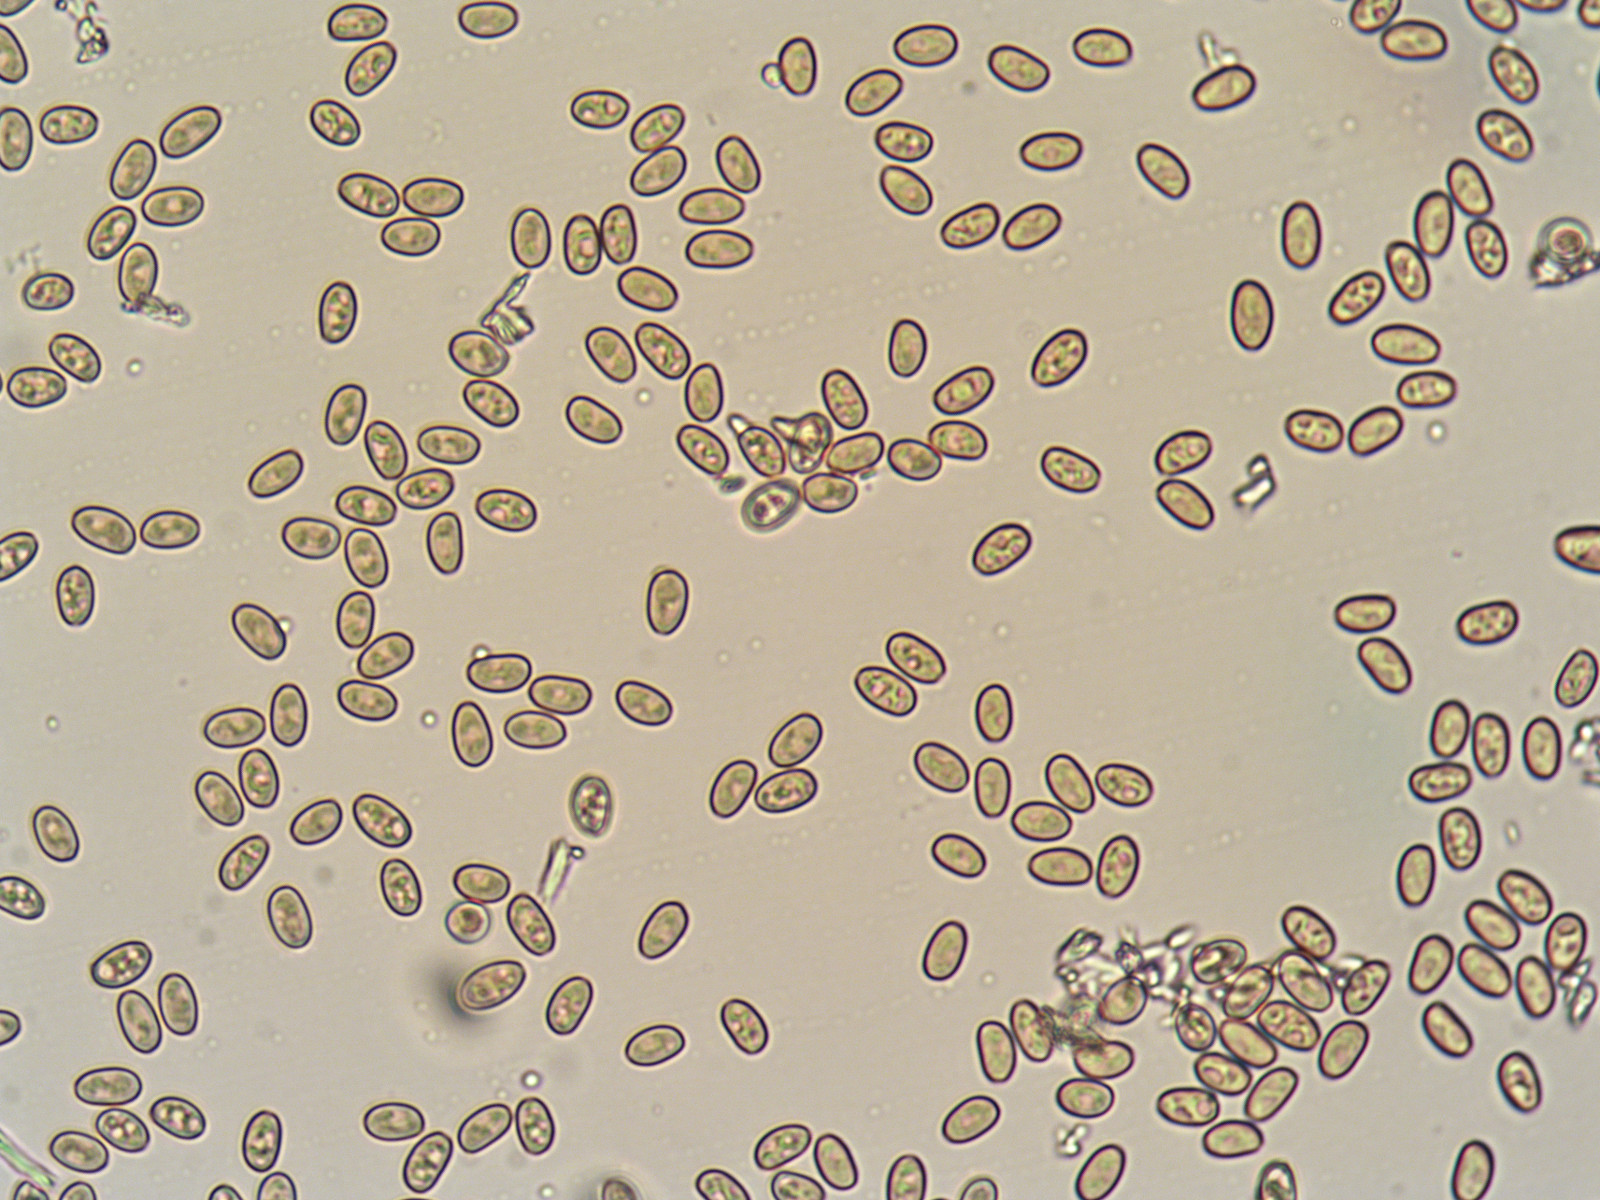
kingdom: Fungi
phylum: Basidiomycota
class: Agaricomycetes
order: Agaricales
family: Strophariaceae
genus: Pholiota
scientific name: Pholiota gummosa
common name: grøngul skælhat
